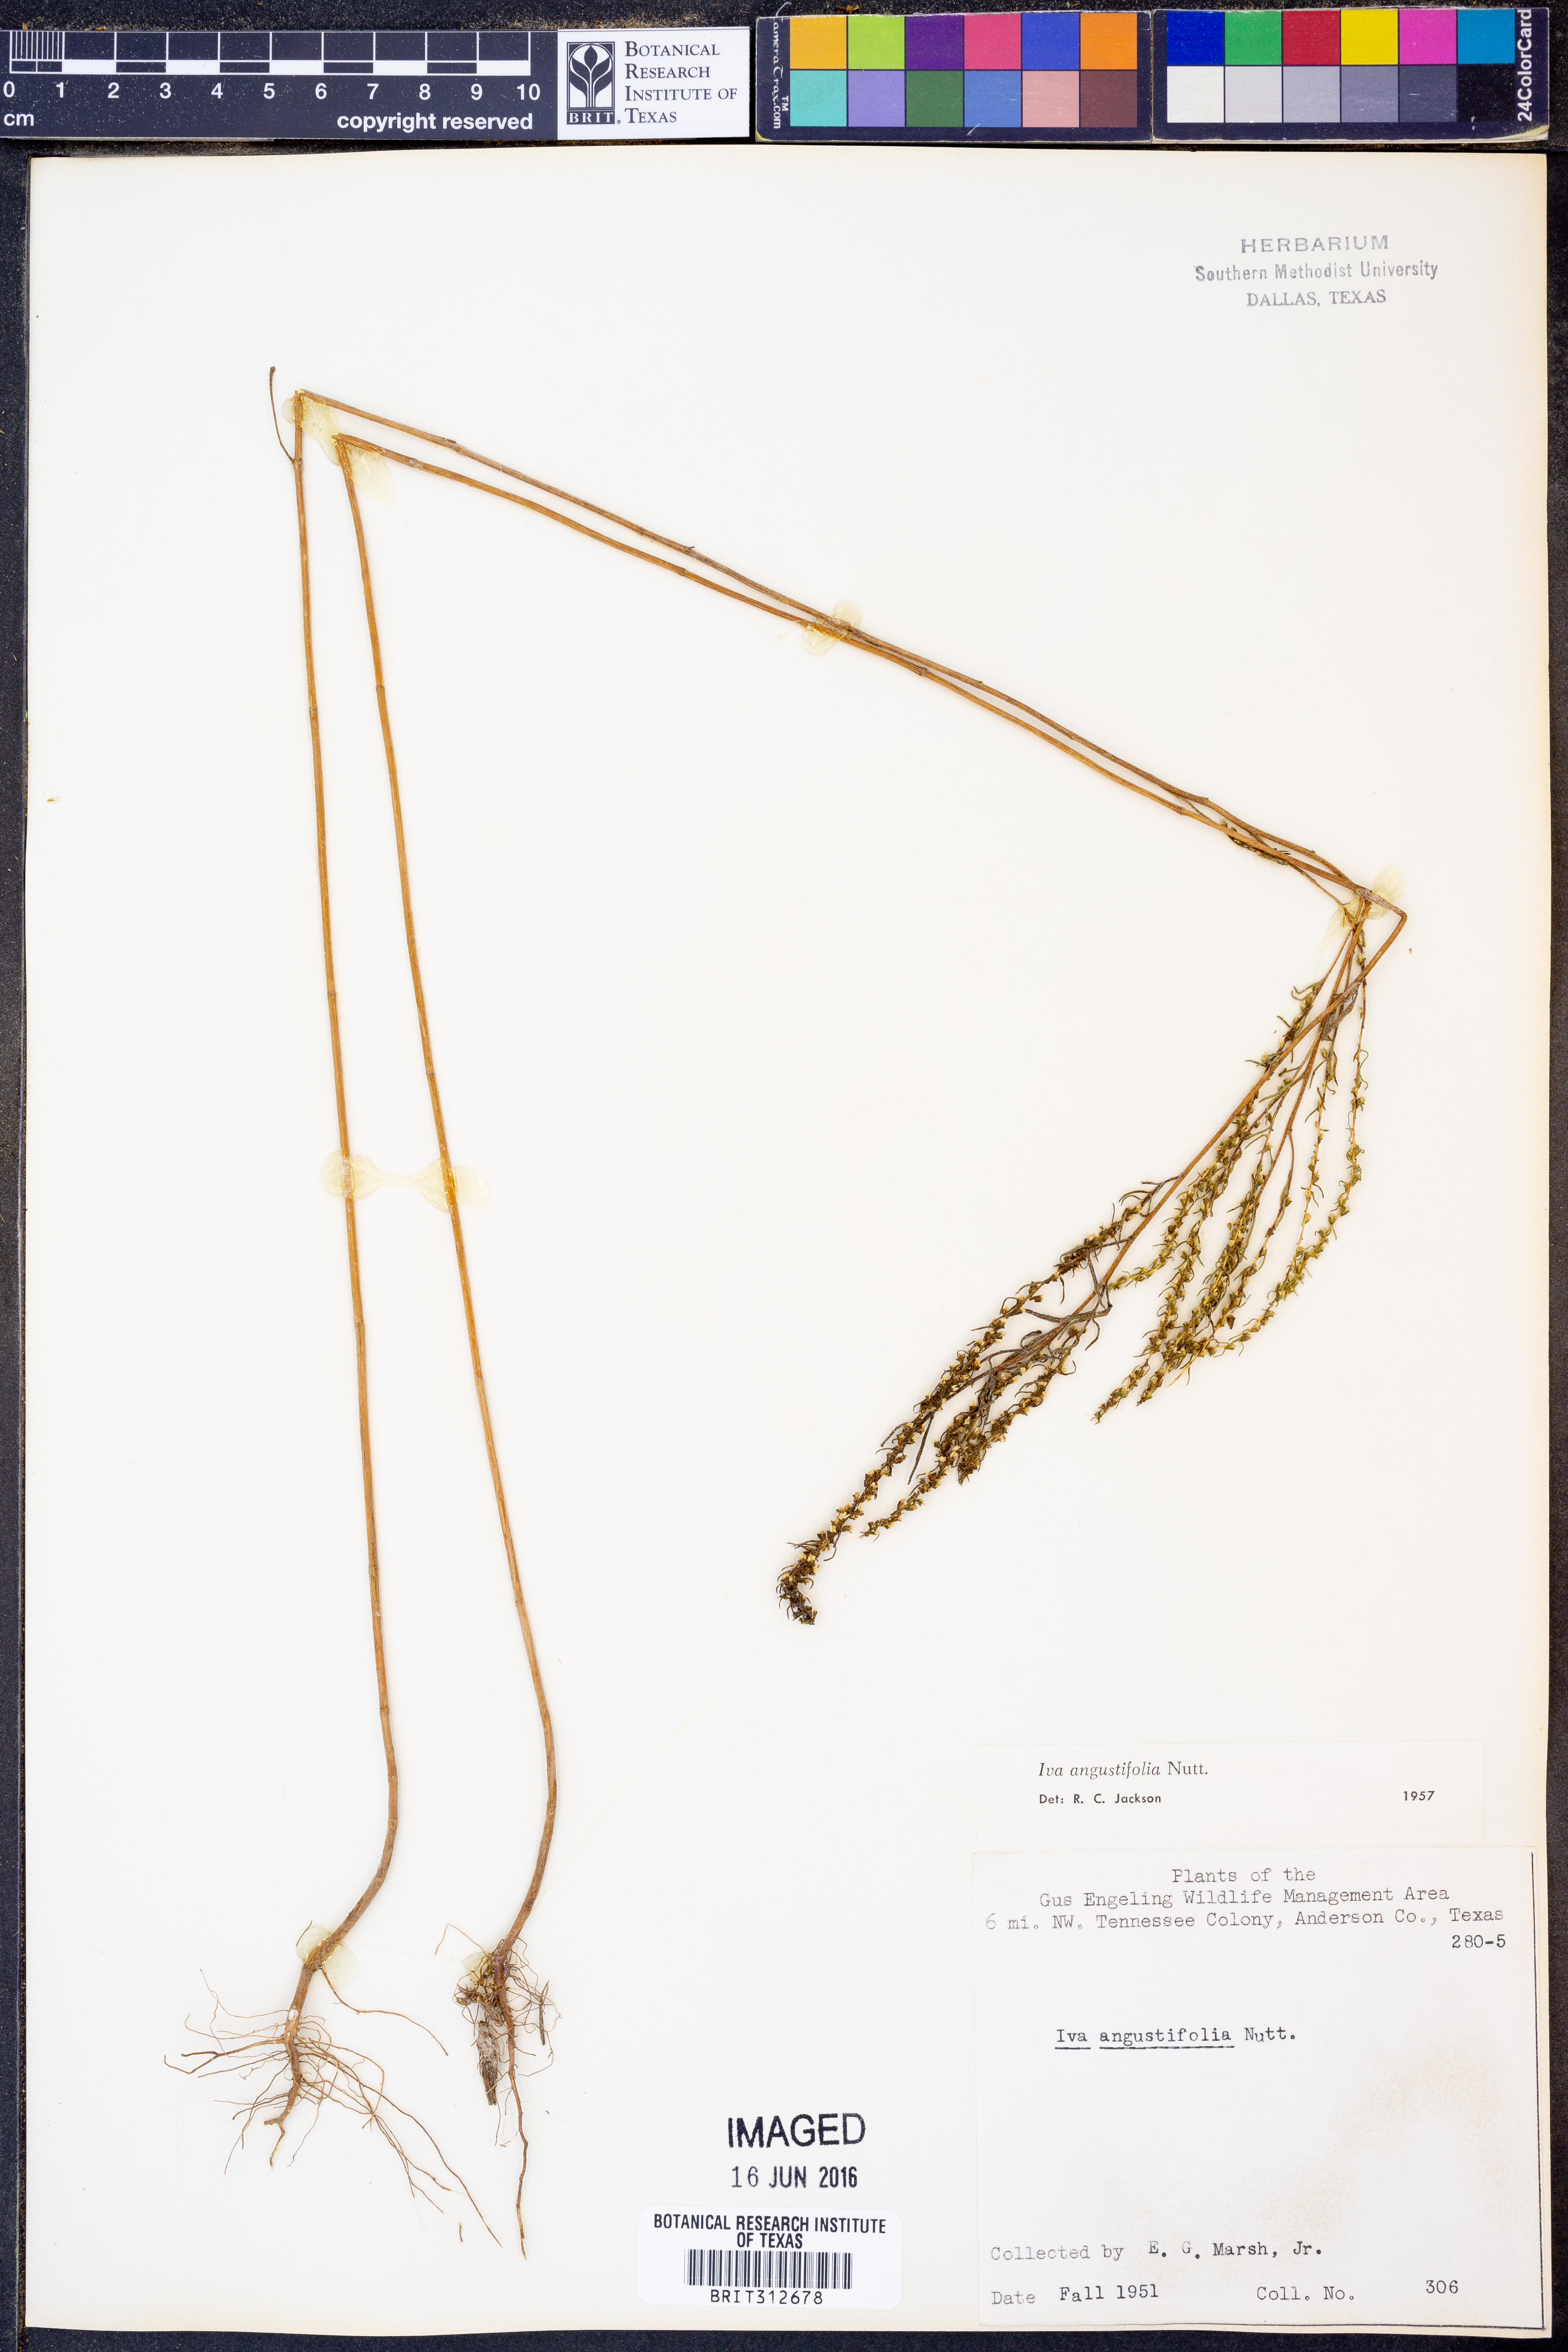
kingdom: Plantae
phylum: Tracheophyta
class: Magnoliopsida
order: Asterales
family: Asteraceae
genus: Iva
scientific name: Iva asperifolia
